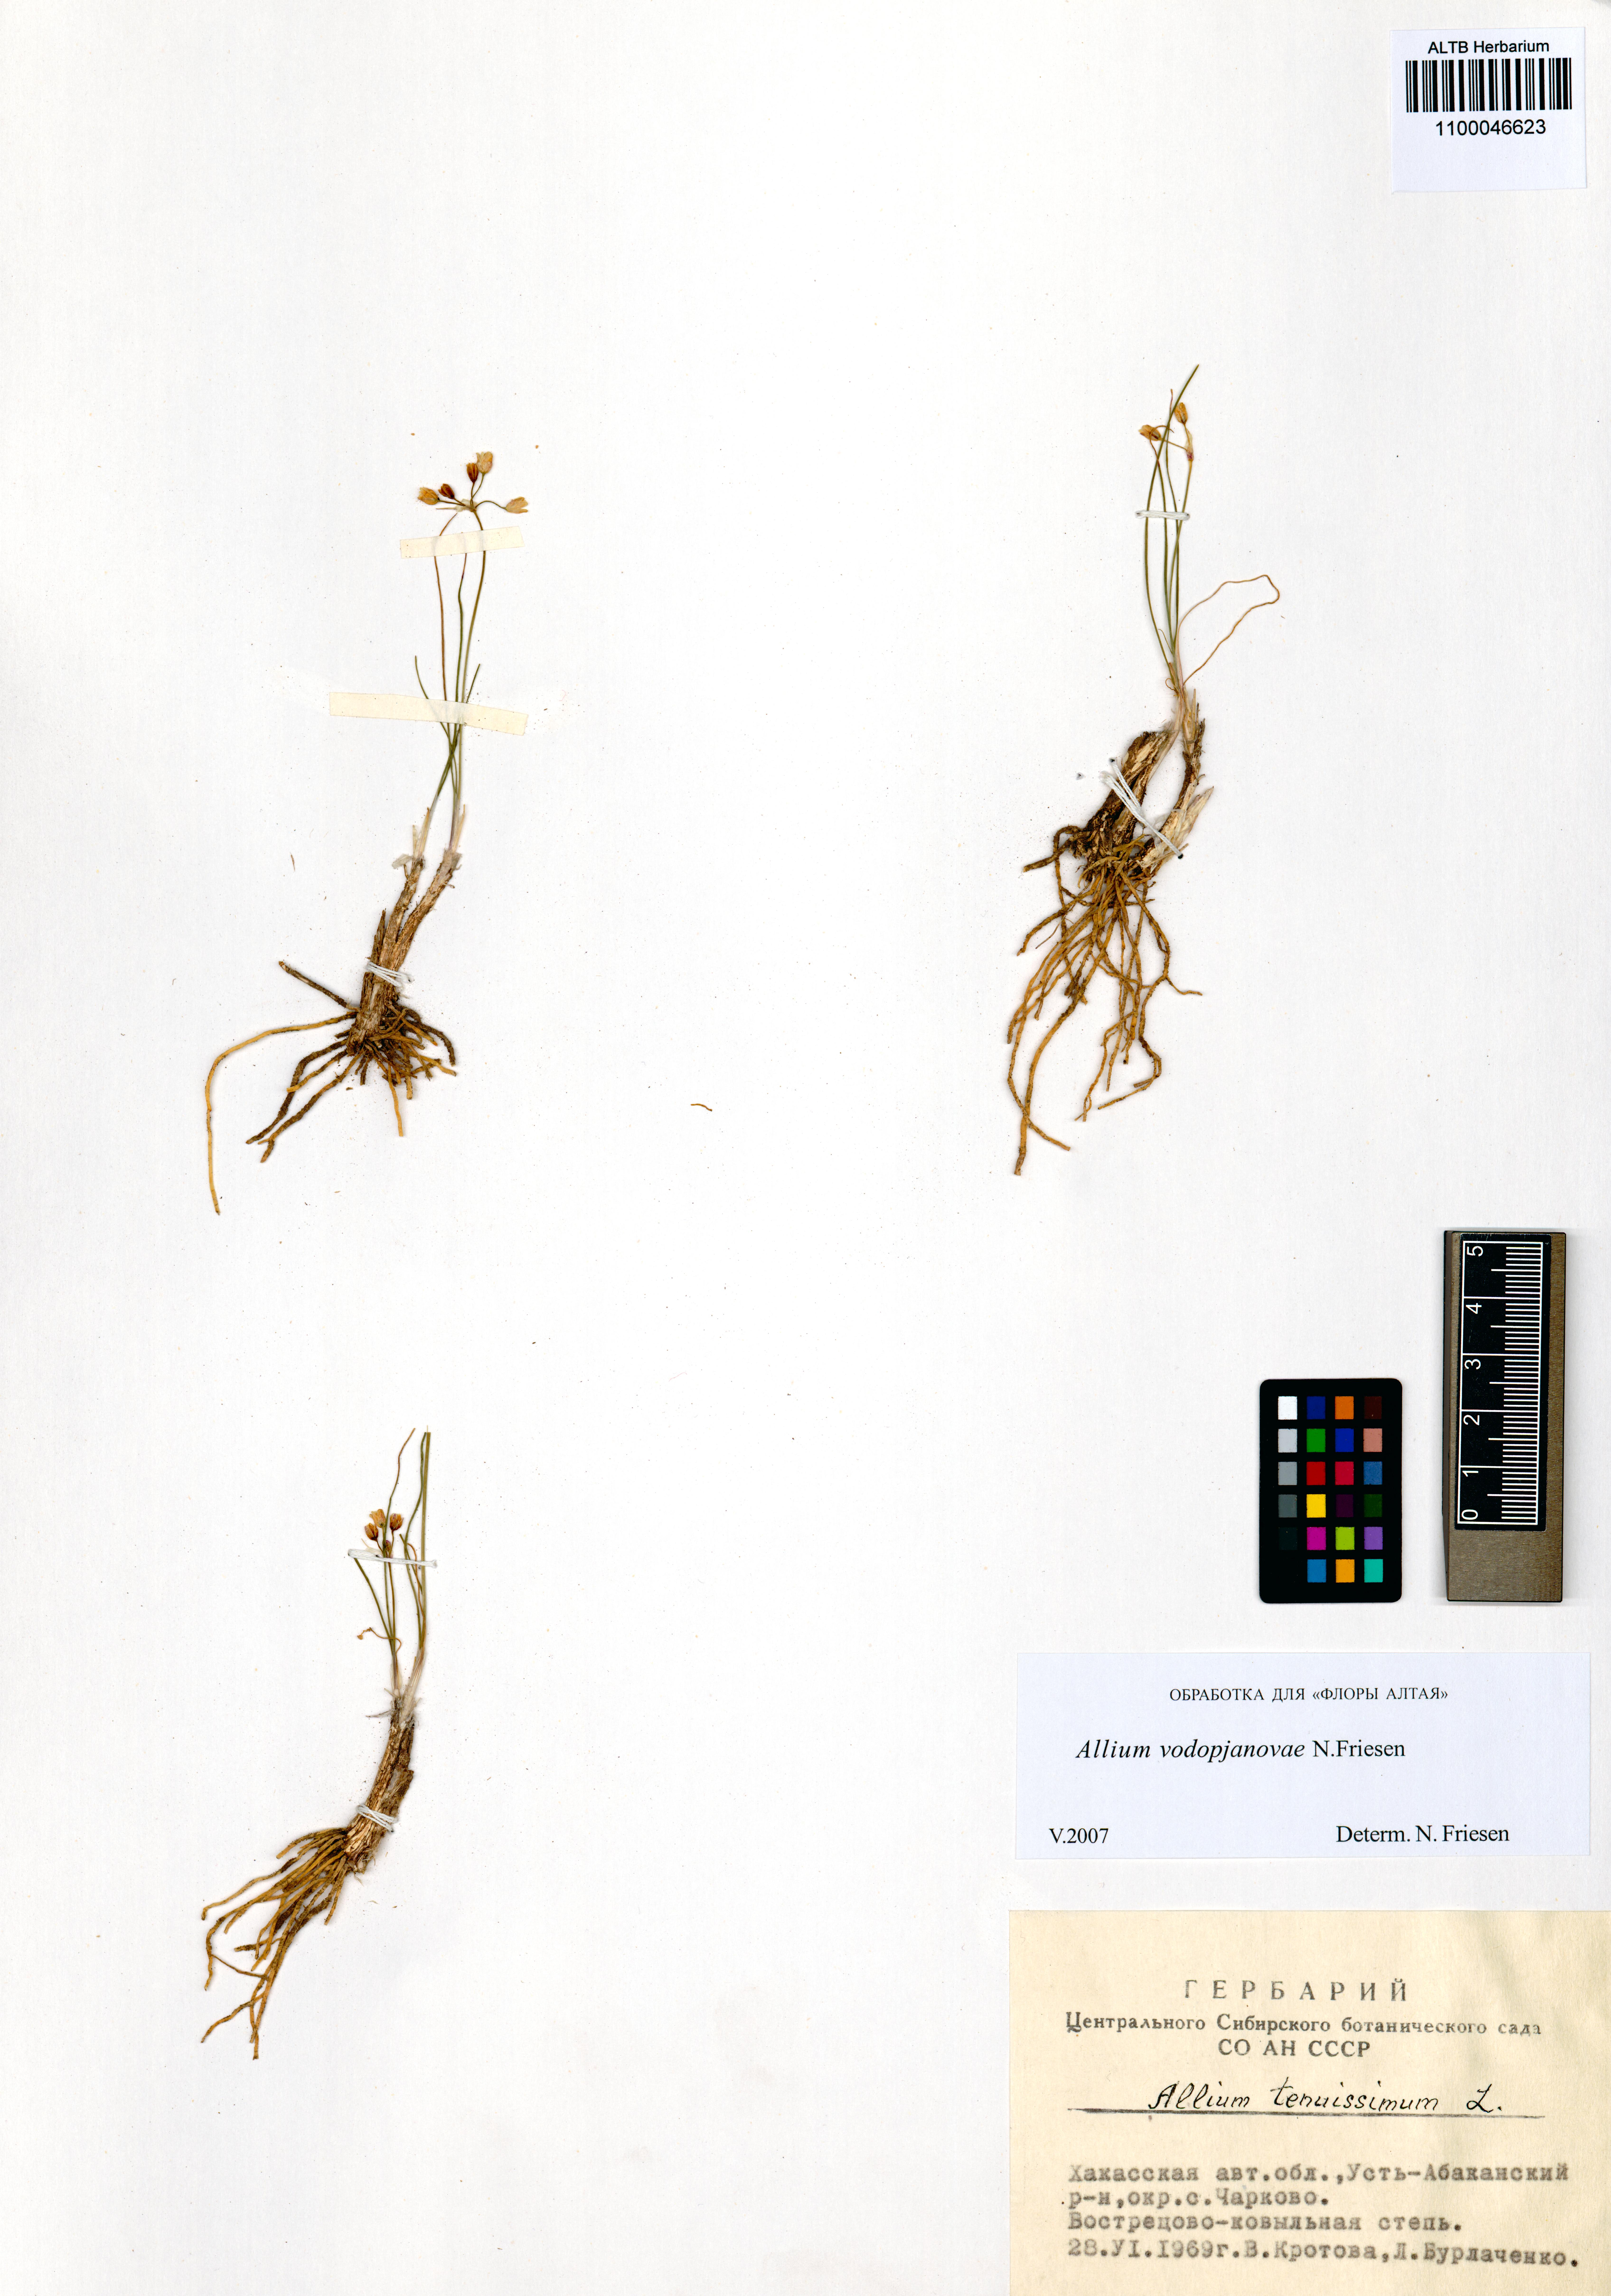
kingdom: Plantae
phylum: Tracheophyta
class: Liliopsida
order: Asparagales
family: Amaryllidaceae
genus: Allium
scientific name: Allium vodopjanovae
